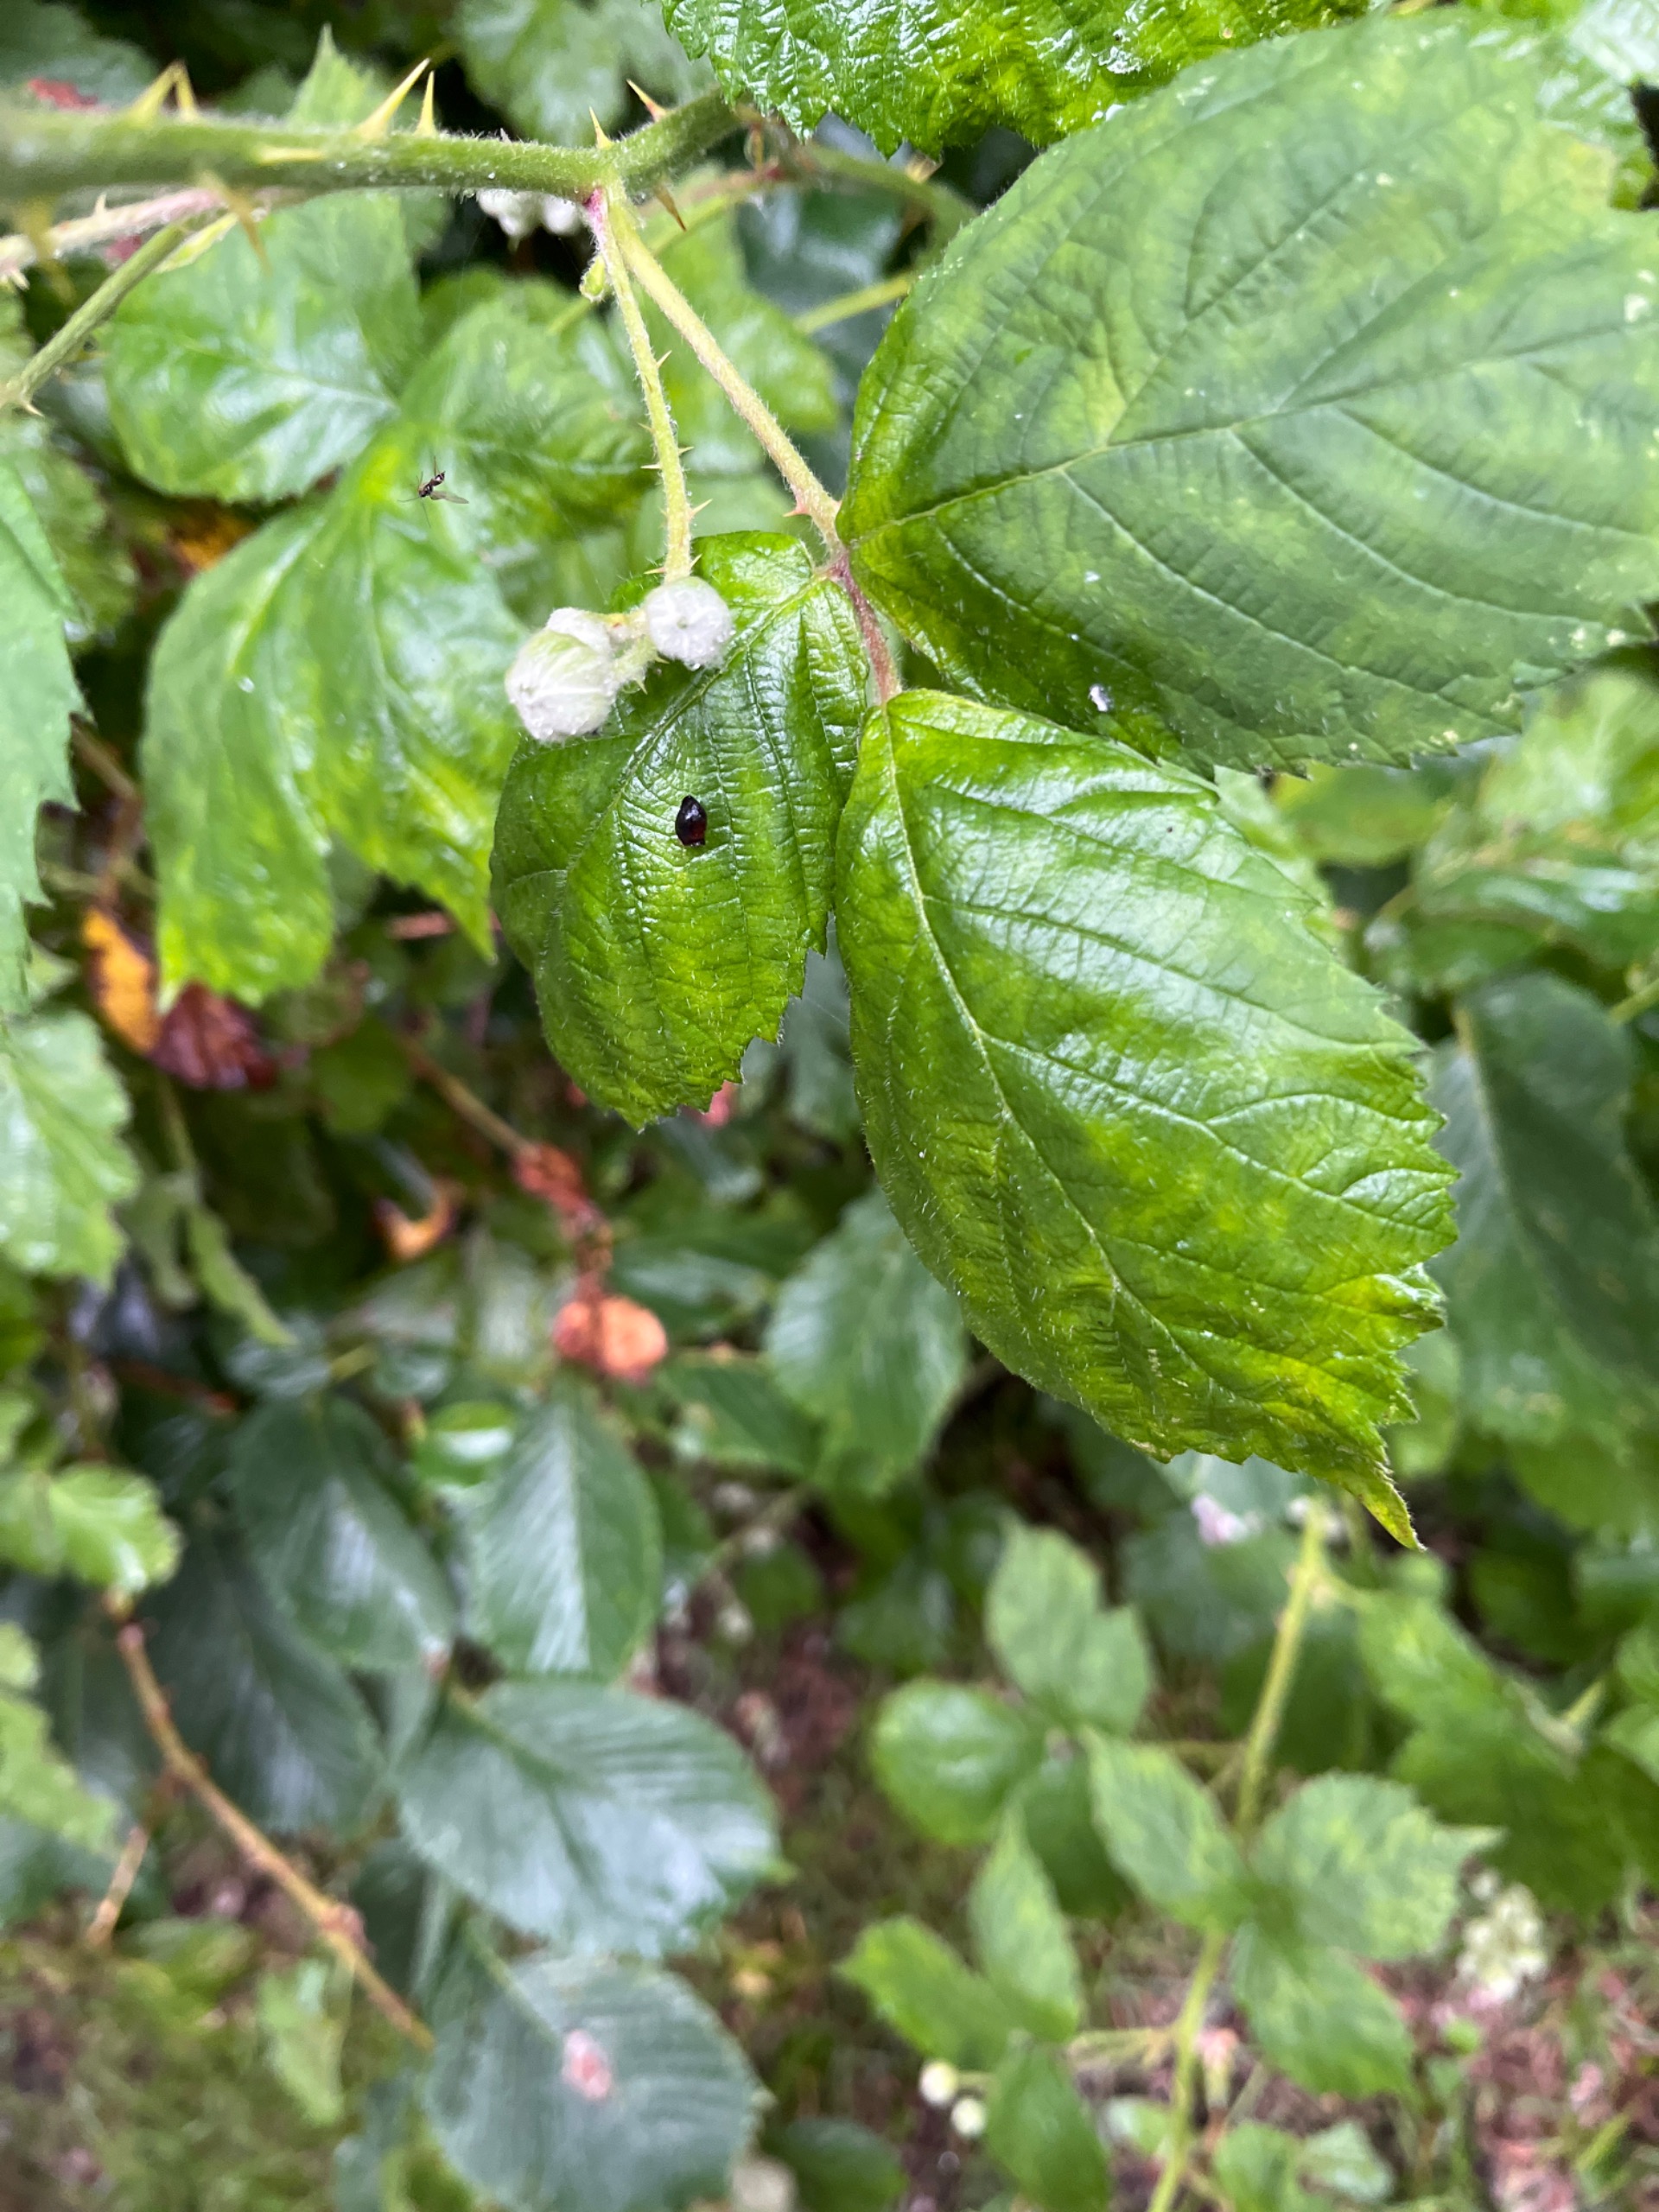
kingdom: Plantae
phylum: Tracheophyta
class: Magnoliopsida
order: Rosales
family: Rosaceae
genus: Rubus
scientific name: Rubus armeniacus
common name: Armensk brombær
